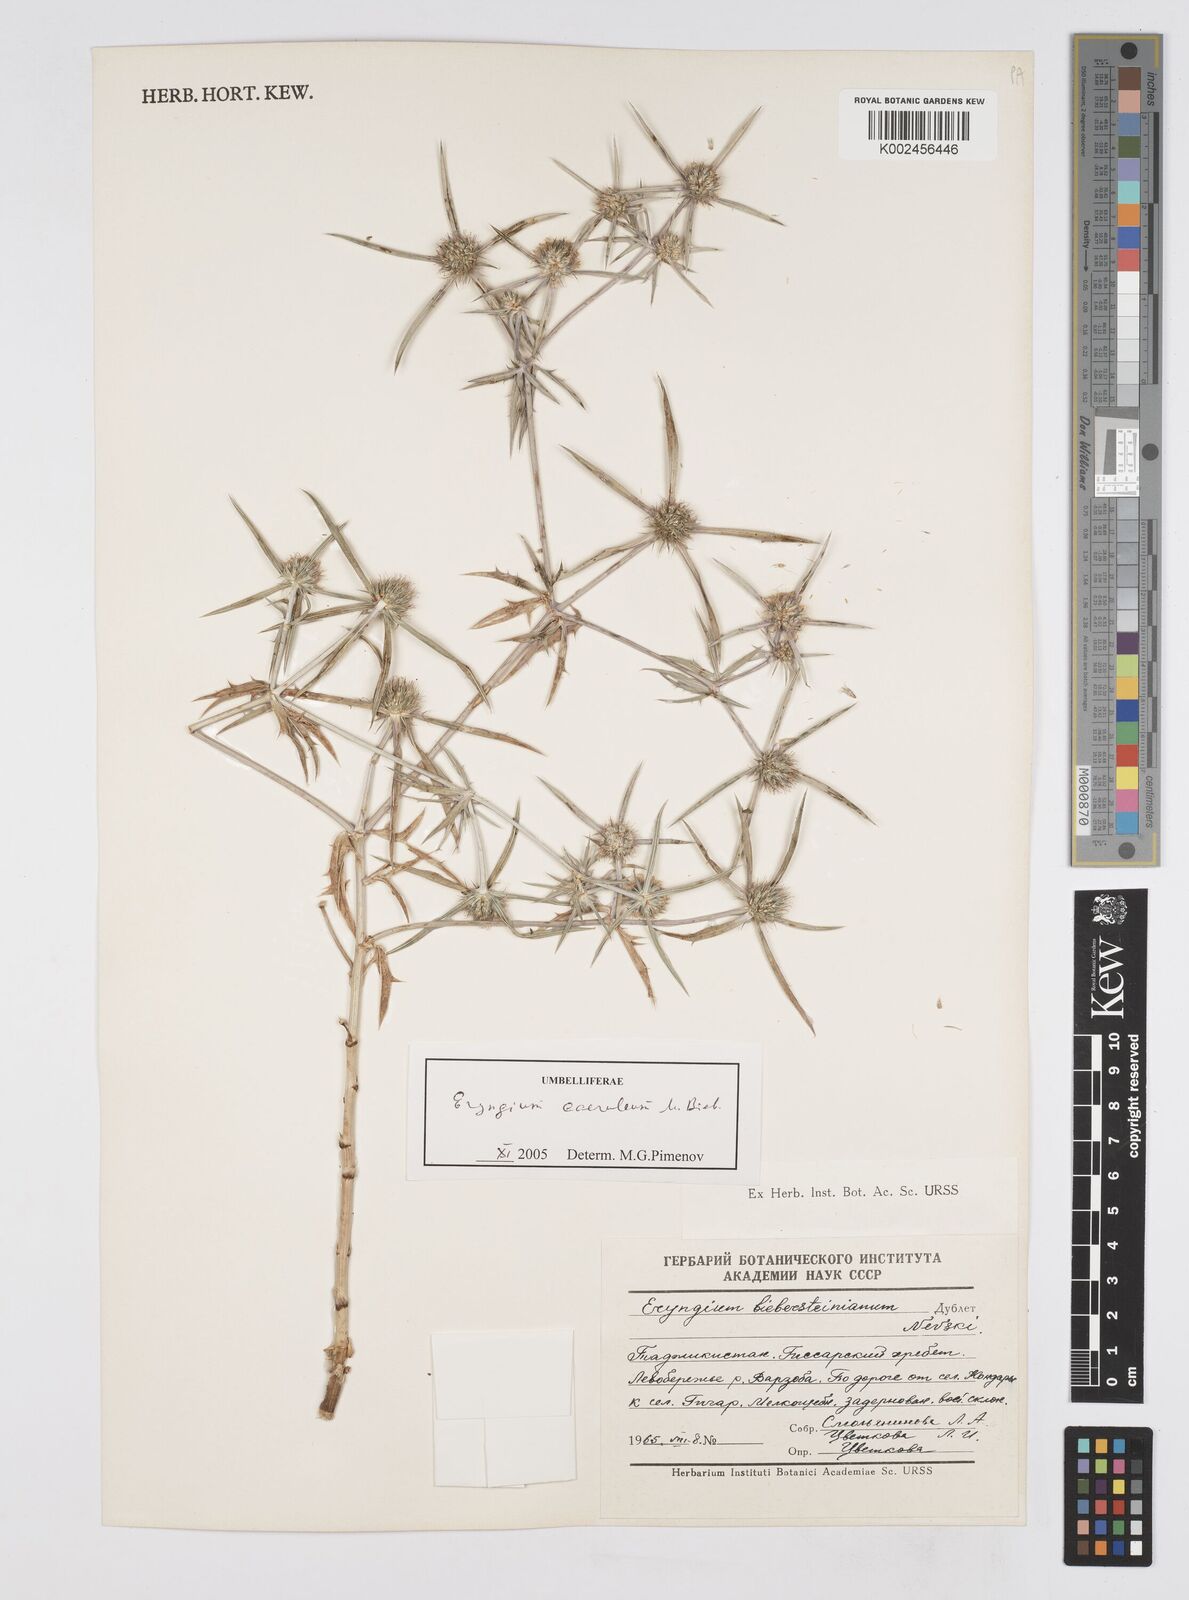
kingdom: Plantae
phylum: Tracheophyta
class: Magnoliopsida
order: Apiales
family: Apiaceae
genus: Eryngium
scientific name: Eryngium caeruleum
